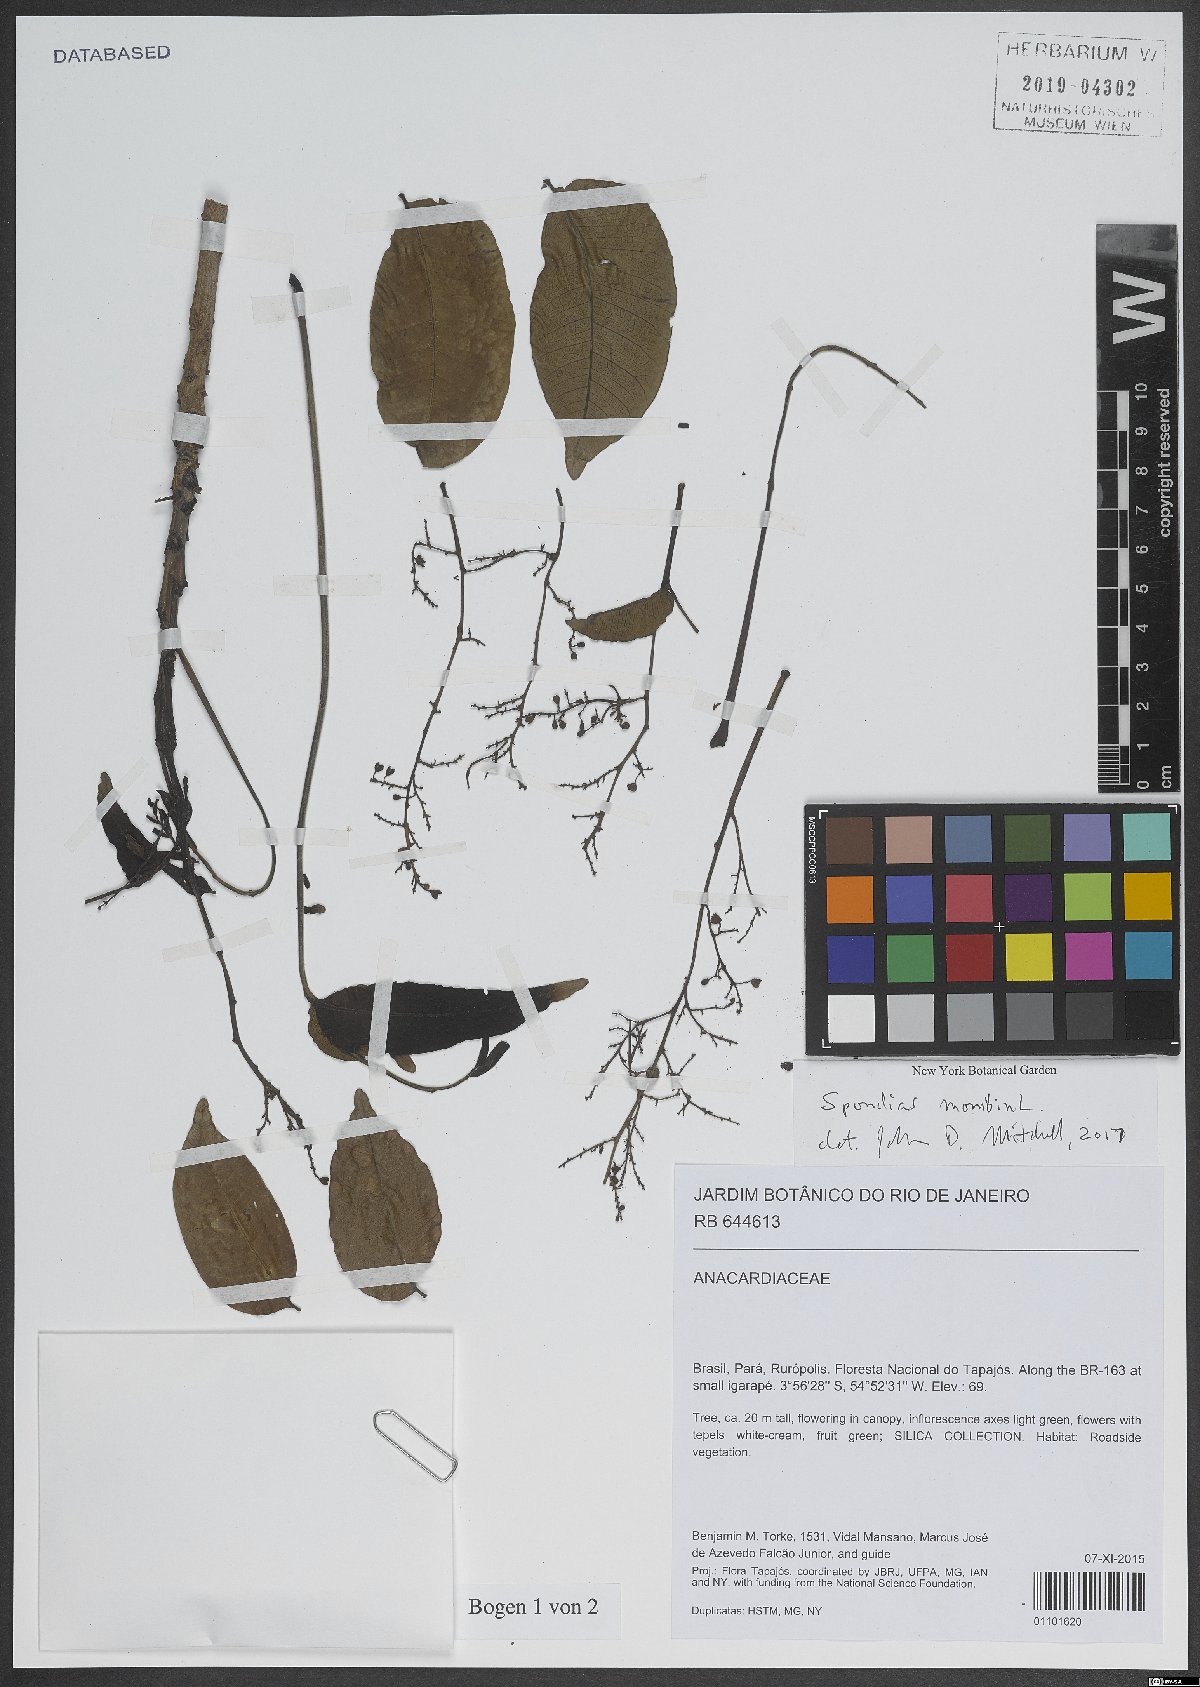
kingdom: Plantae
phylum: Tracheophyta
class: Magnoliopsida
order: Sapindales
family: Anacardiaceae
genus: Spondias
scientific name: Spondias mombin
